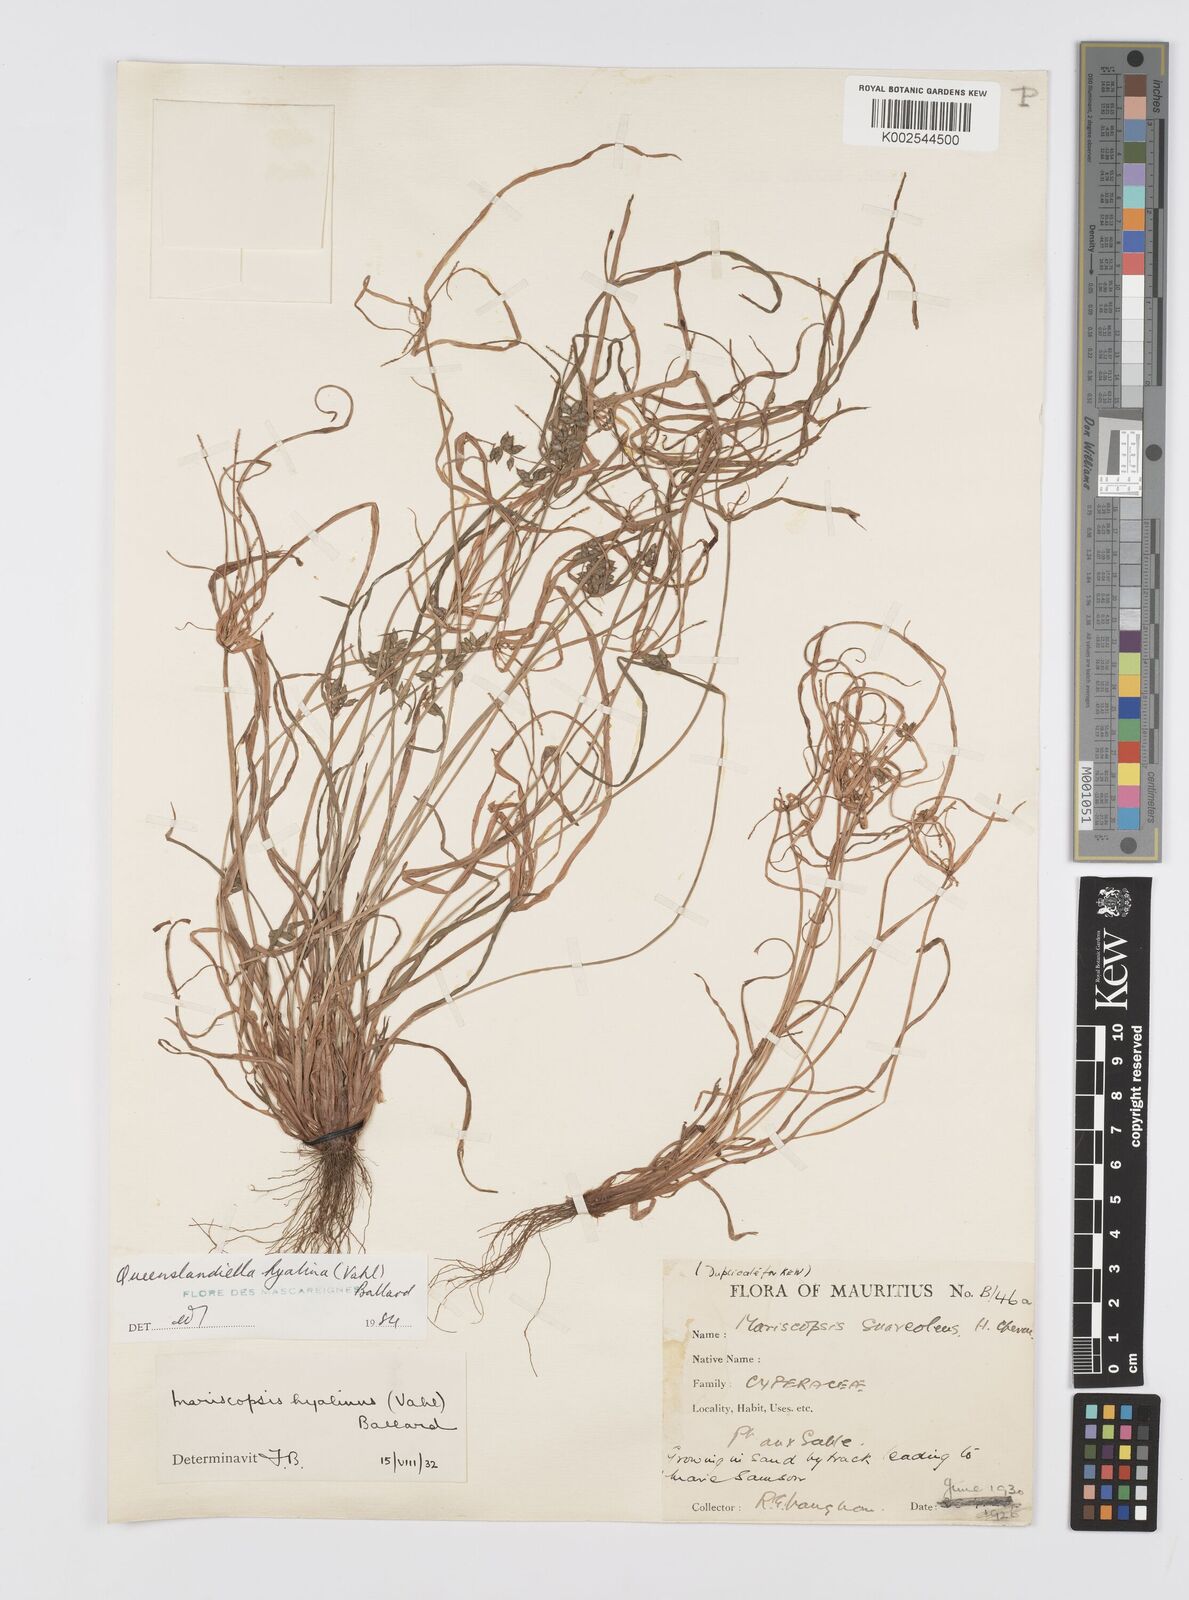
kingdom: Plantae
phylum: Tracheophyta
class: Liliopsida
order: Poales
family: Cyperaceae
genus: Cyperus
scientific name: Cyperus hyalinus
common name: Queensland sedge
